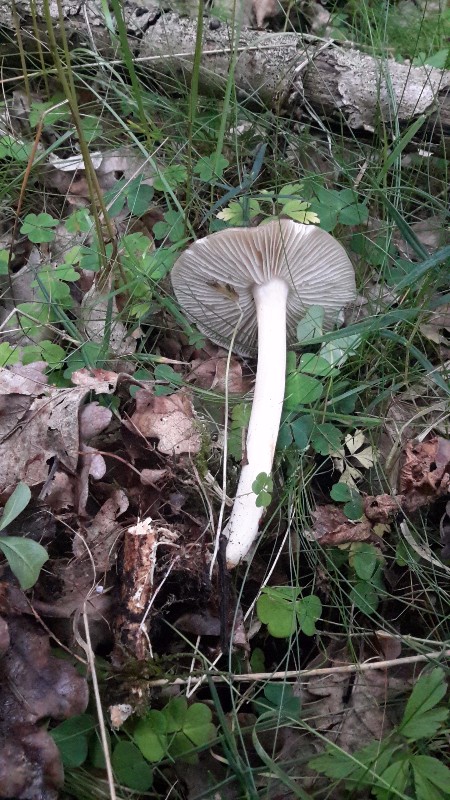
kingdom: Fungi
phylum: Basidiomycota
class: Agaricomycetes
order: Agaricales
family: Tricholomataceae
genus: Megacollybia
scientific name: Megacollybia platyphylla
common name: bredbladet væbnerhat
